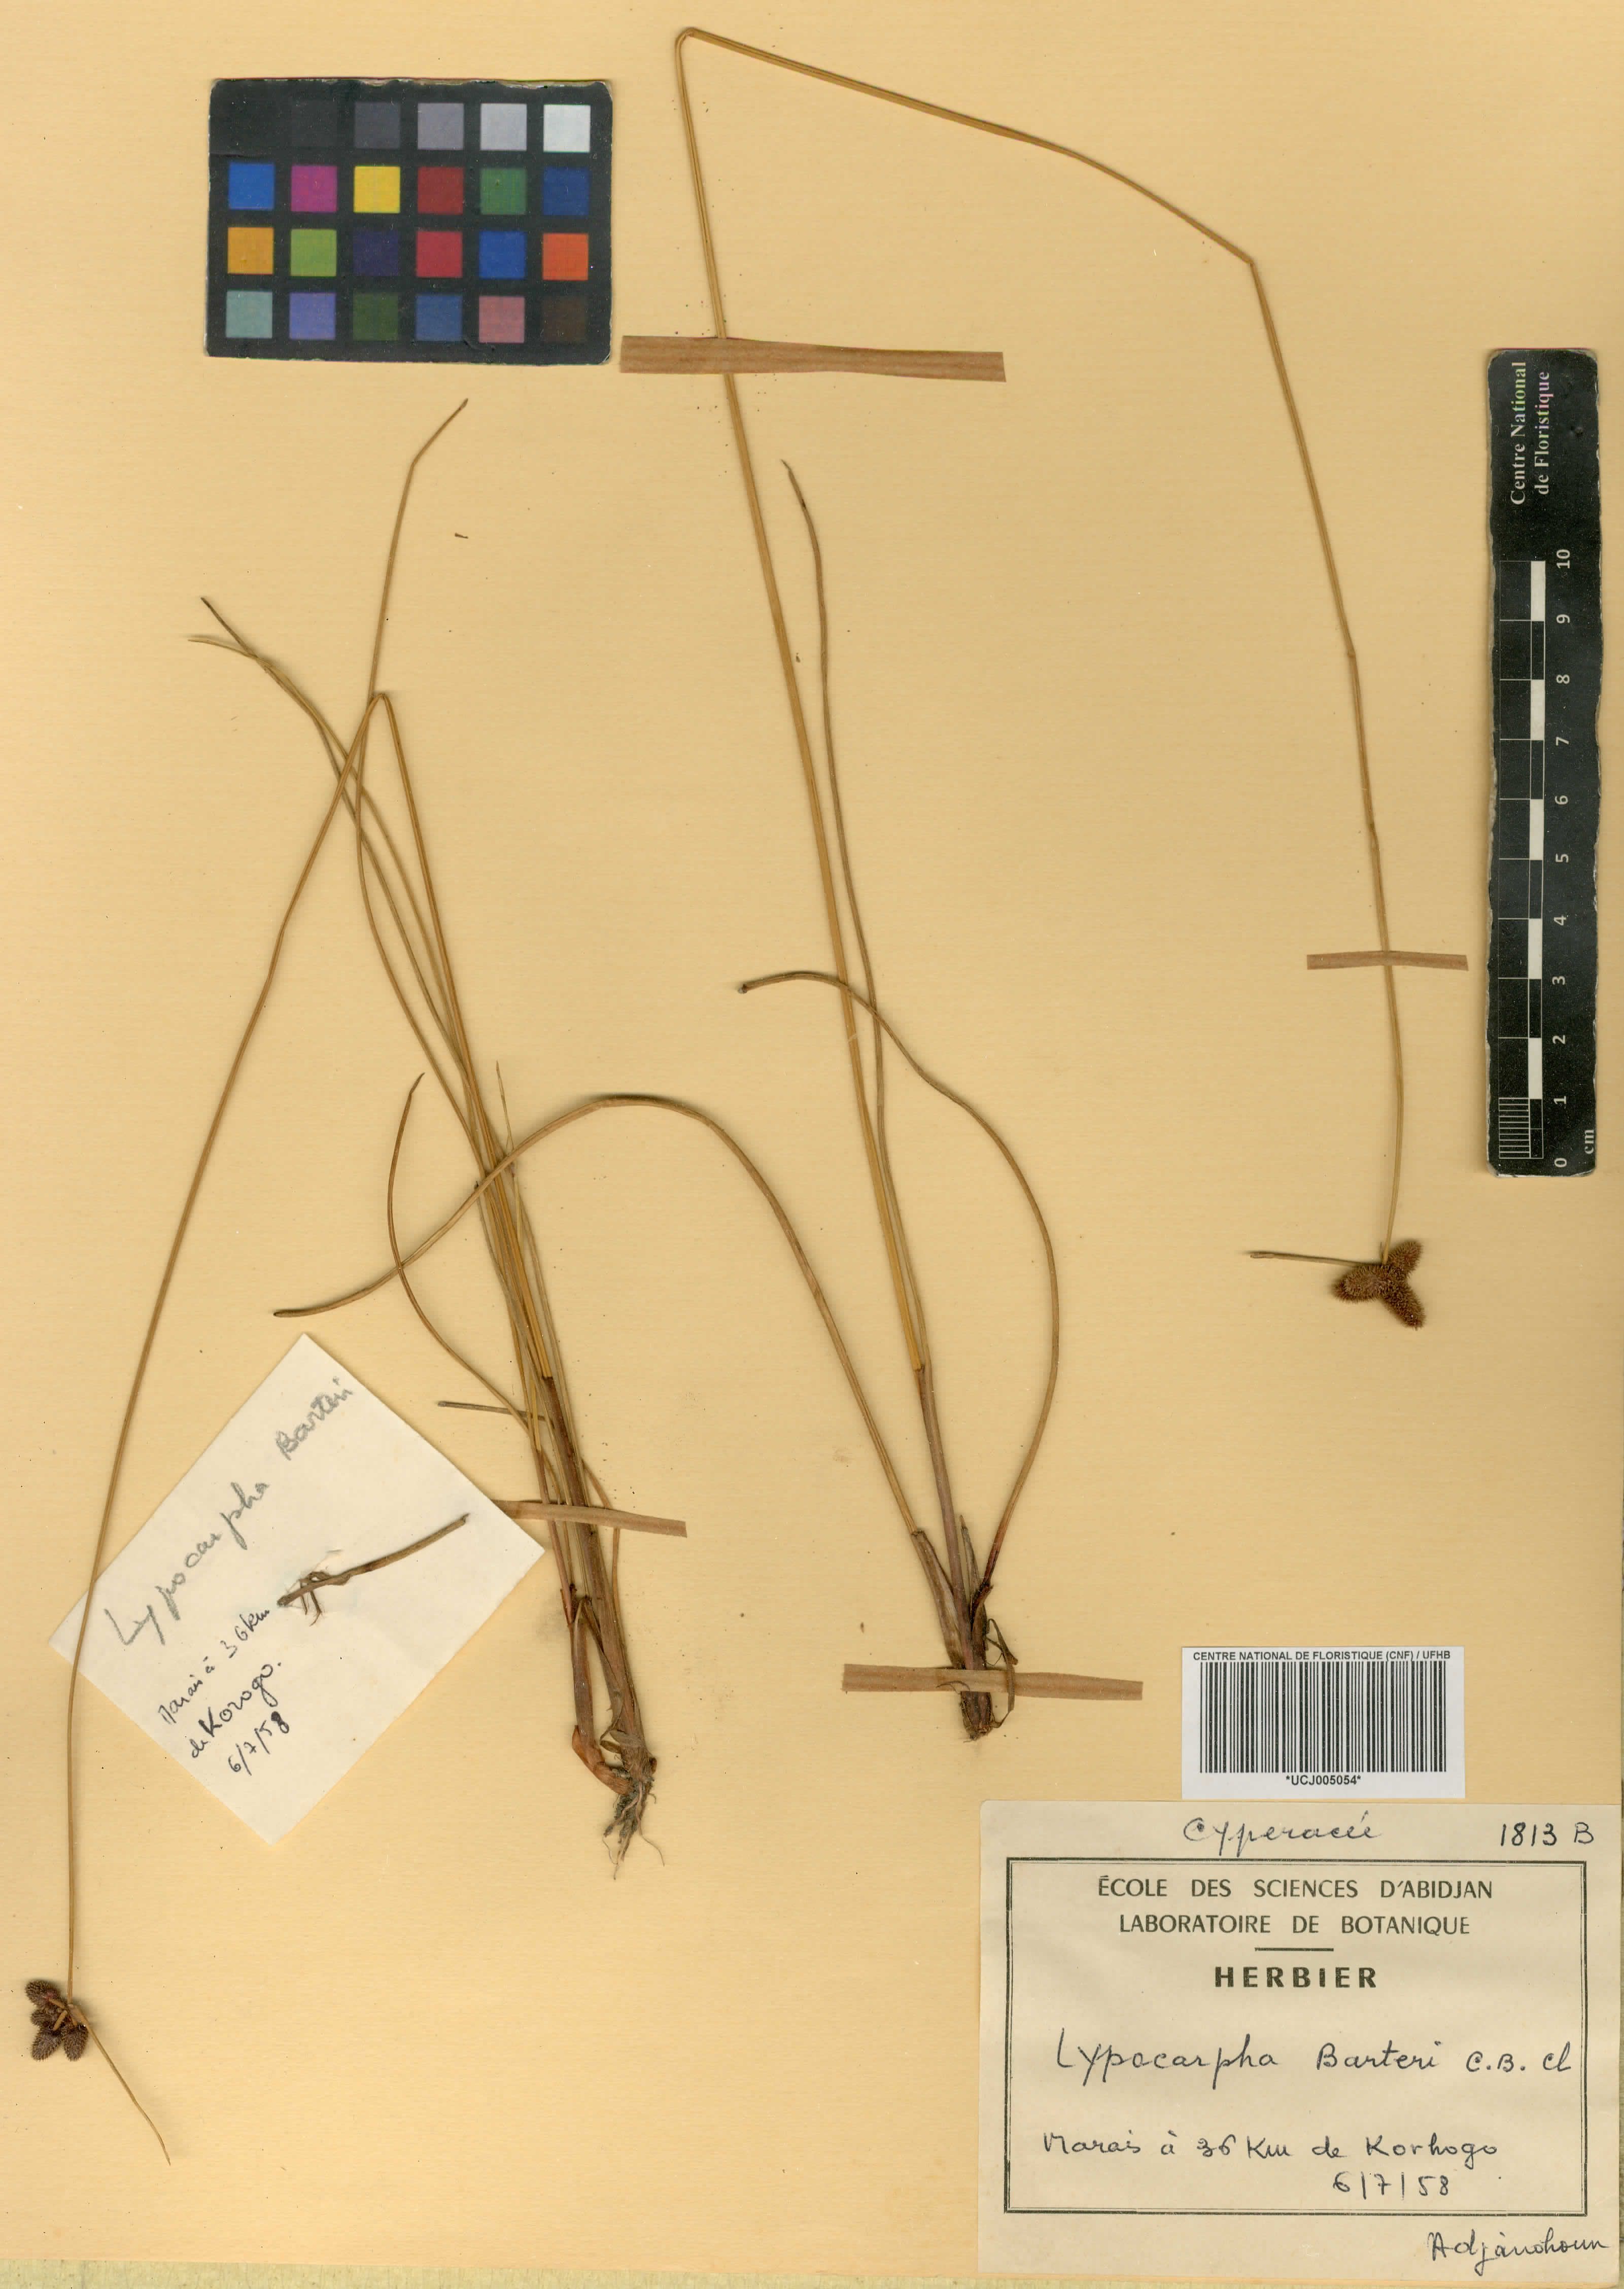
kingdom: Plantae
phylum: Tracheophyta
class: Liliopsida
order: Poales
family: Cyperaceae
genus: Cyperus
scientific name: Cyperus neobarteri
